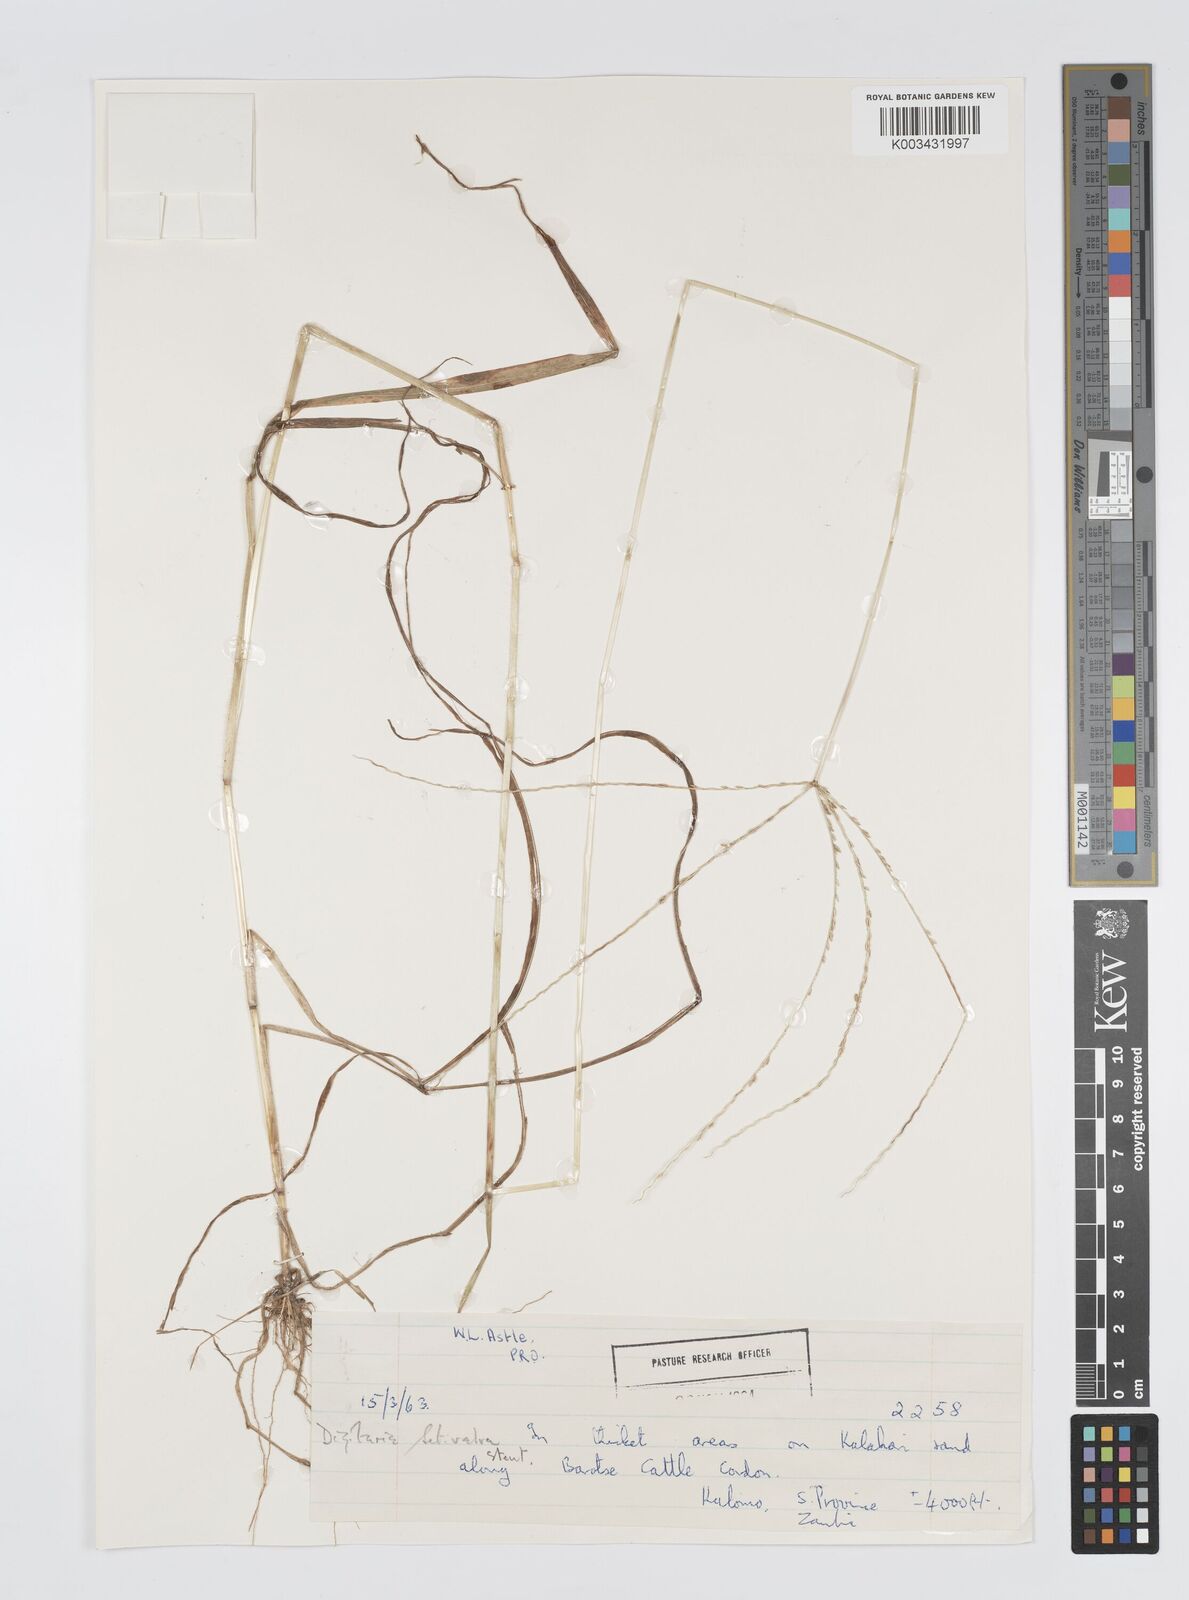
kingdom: Plantae
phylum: Tracheophyta
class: Liliopsida
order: Poales
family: Poaceae
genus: Digitaria
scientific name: Digitaria milanjiana
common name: Madagascar crabgrass
